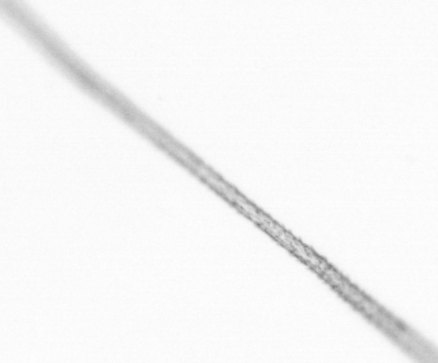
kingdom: Chromista
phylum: Ochrophyta
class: Bacillariophyceae
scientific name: Bacillariophyceae
